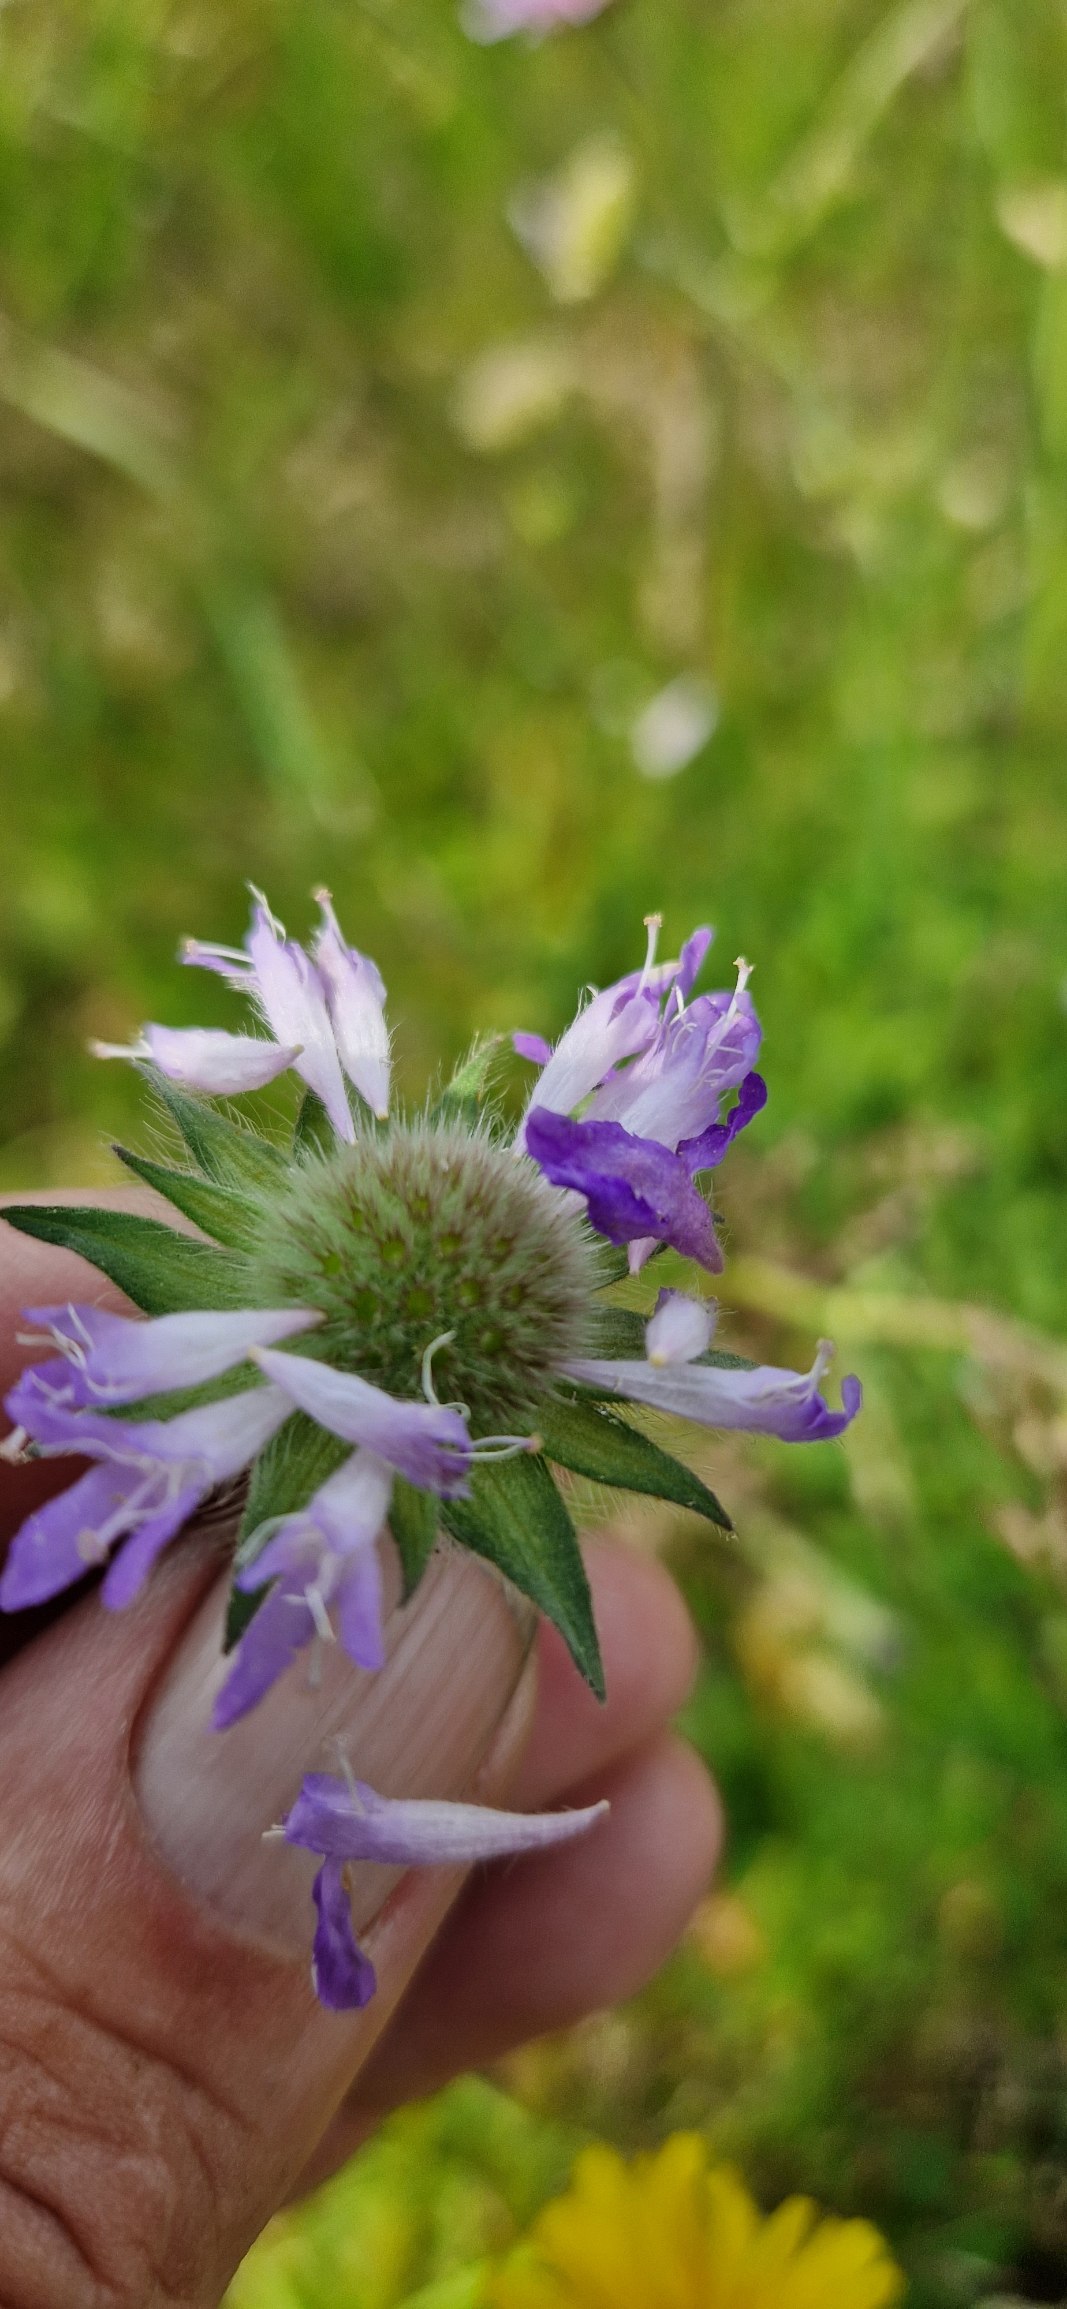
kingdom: Plantae
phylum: Tracheophyta
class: Magnoliopsida
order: Dipsacales
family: Caprifoliaceae
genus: Knautia
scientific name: Knautia arvensis
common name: Blåhat
